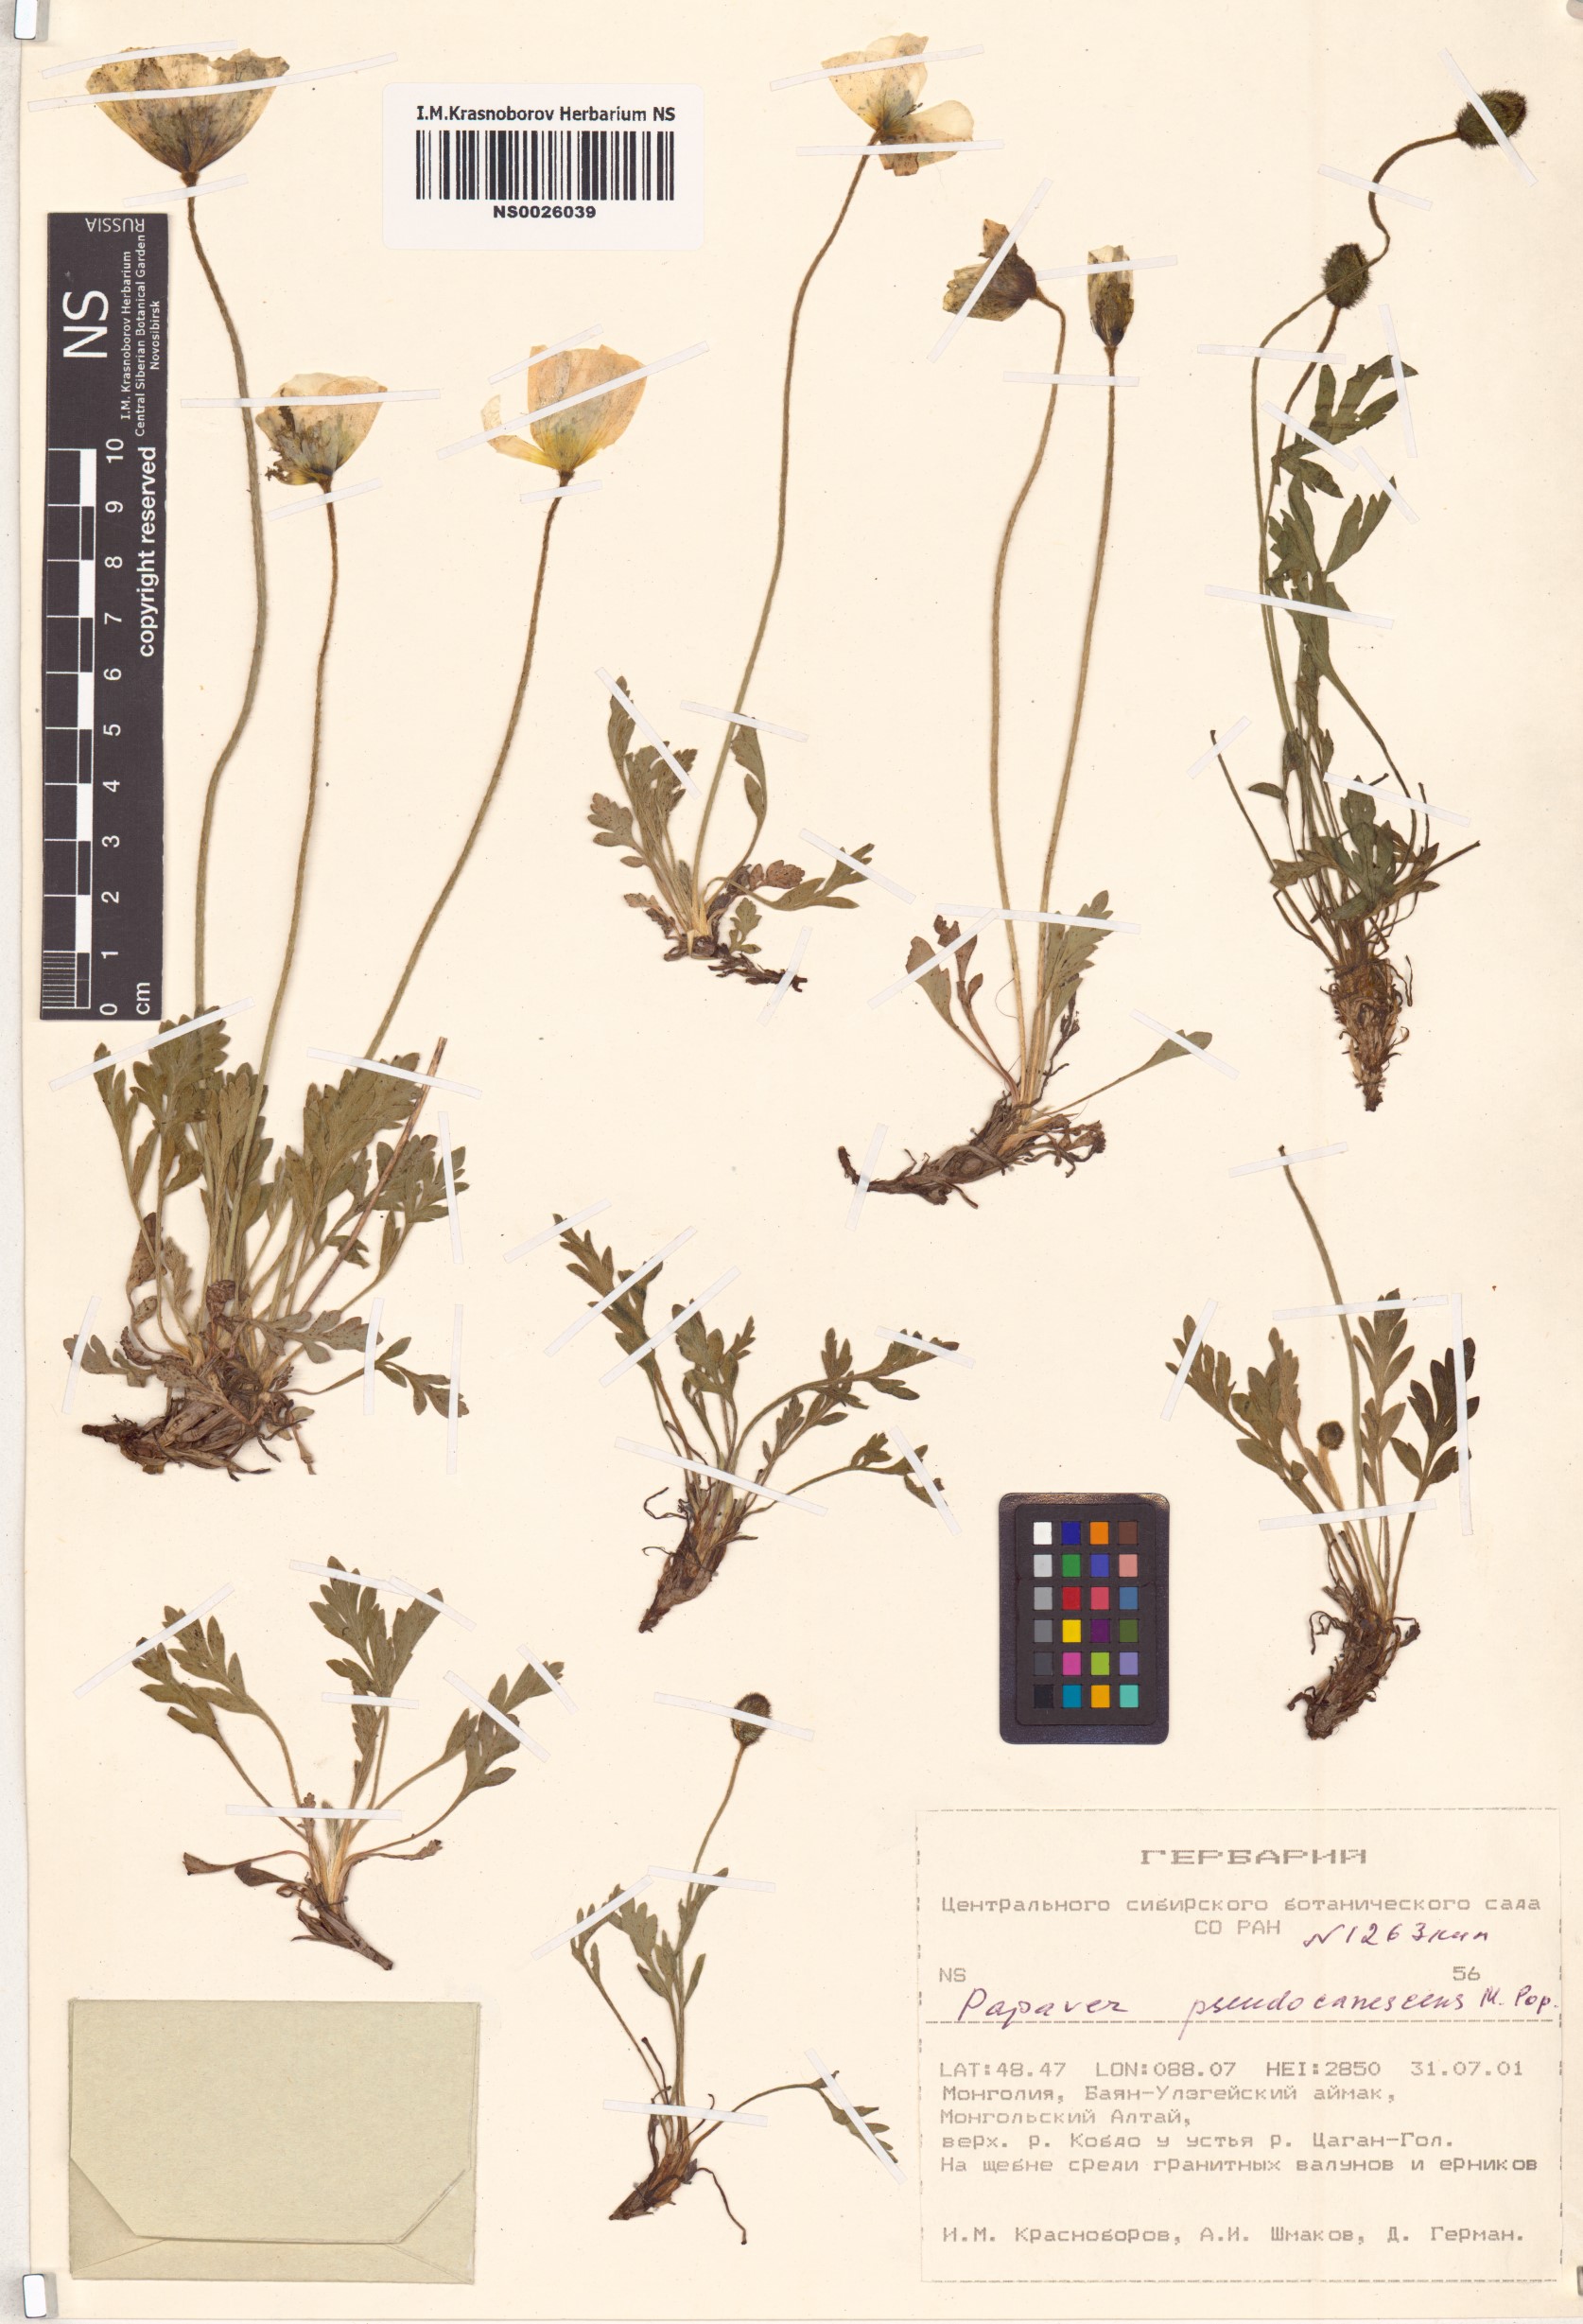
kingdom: Plantae
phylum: Tracheophyta
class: Magnoliopsida
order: Ranunculales
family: Papaveraceae
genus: Papaver
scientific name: Papaver canescens
